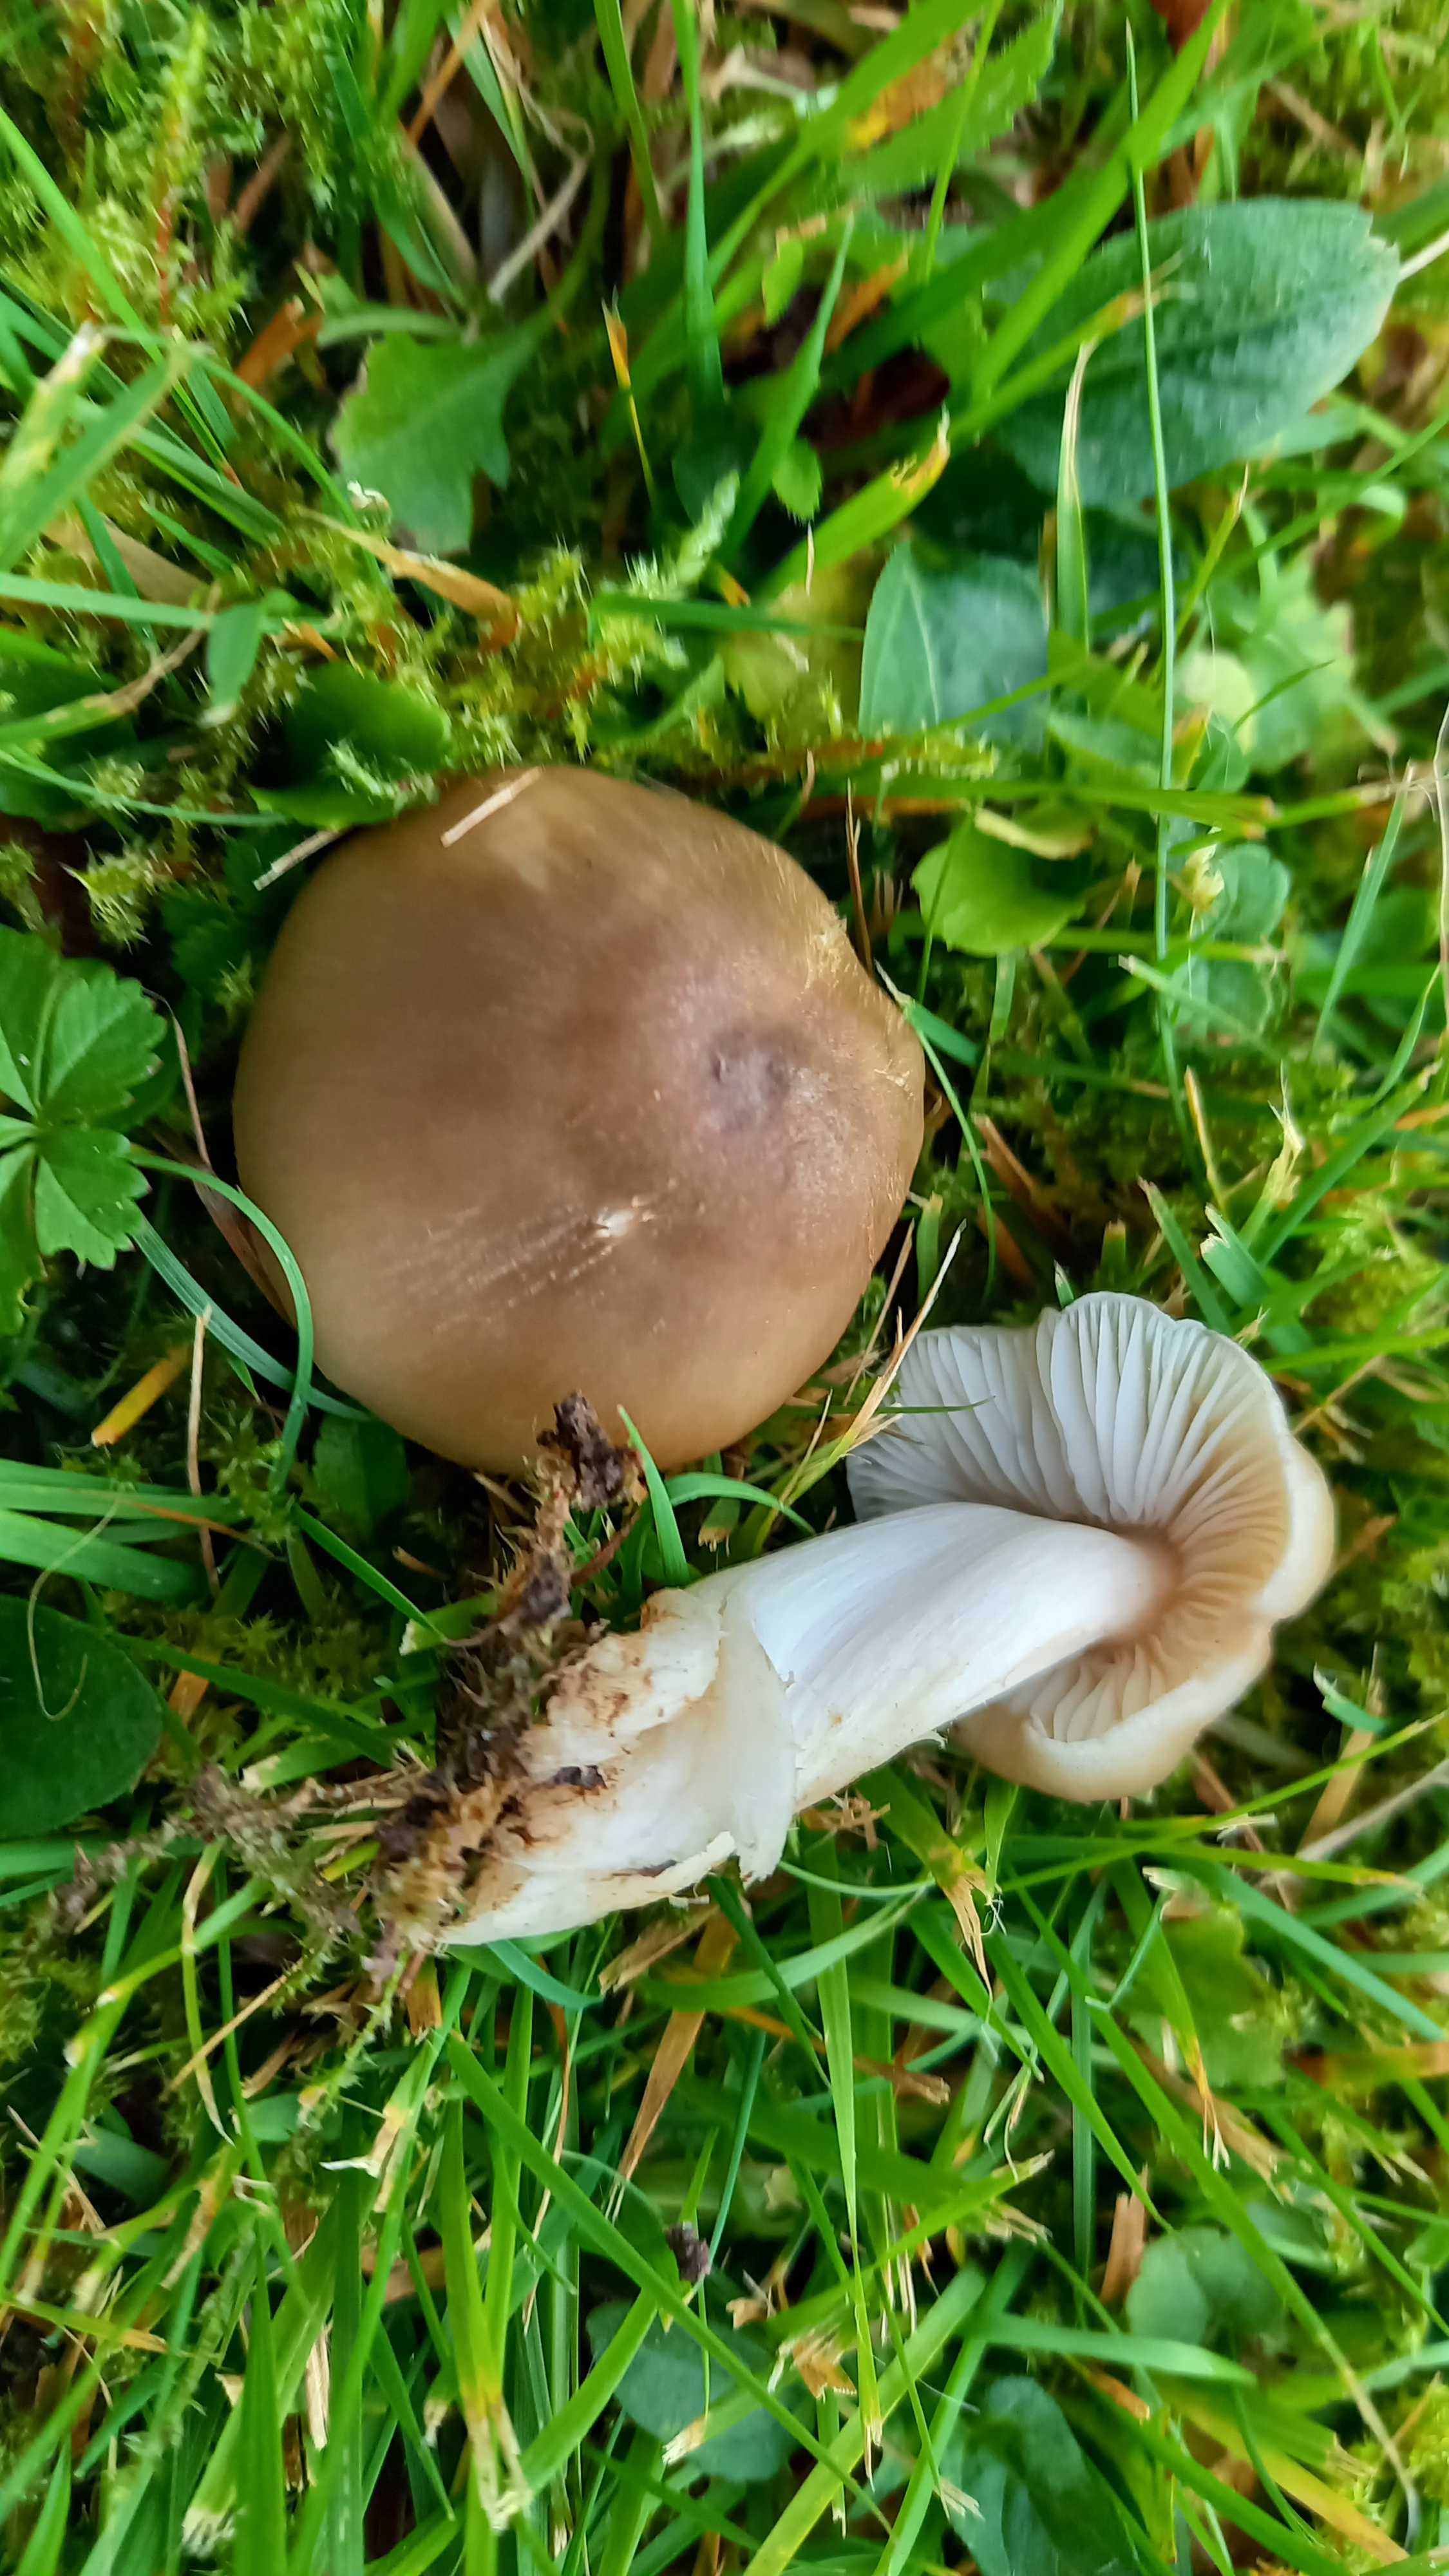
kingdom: Fungi
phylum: Basidiomycota
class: Agaricomycetes
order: Agaricales
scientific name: Agaricales
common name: champignonordenen
